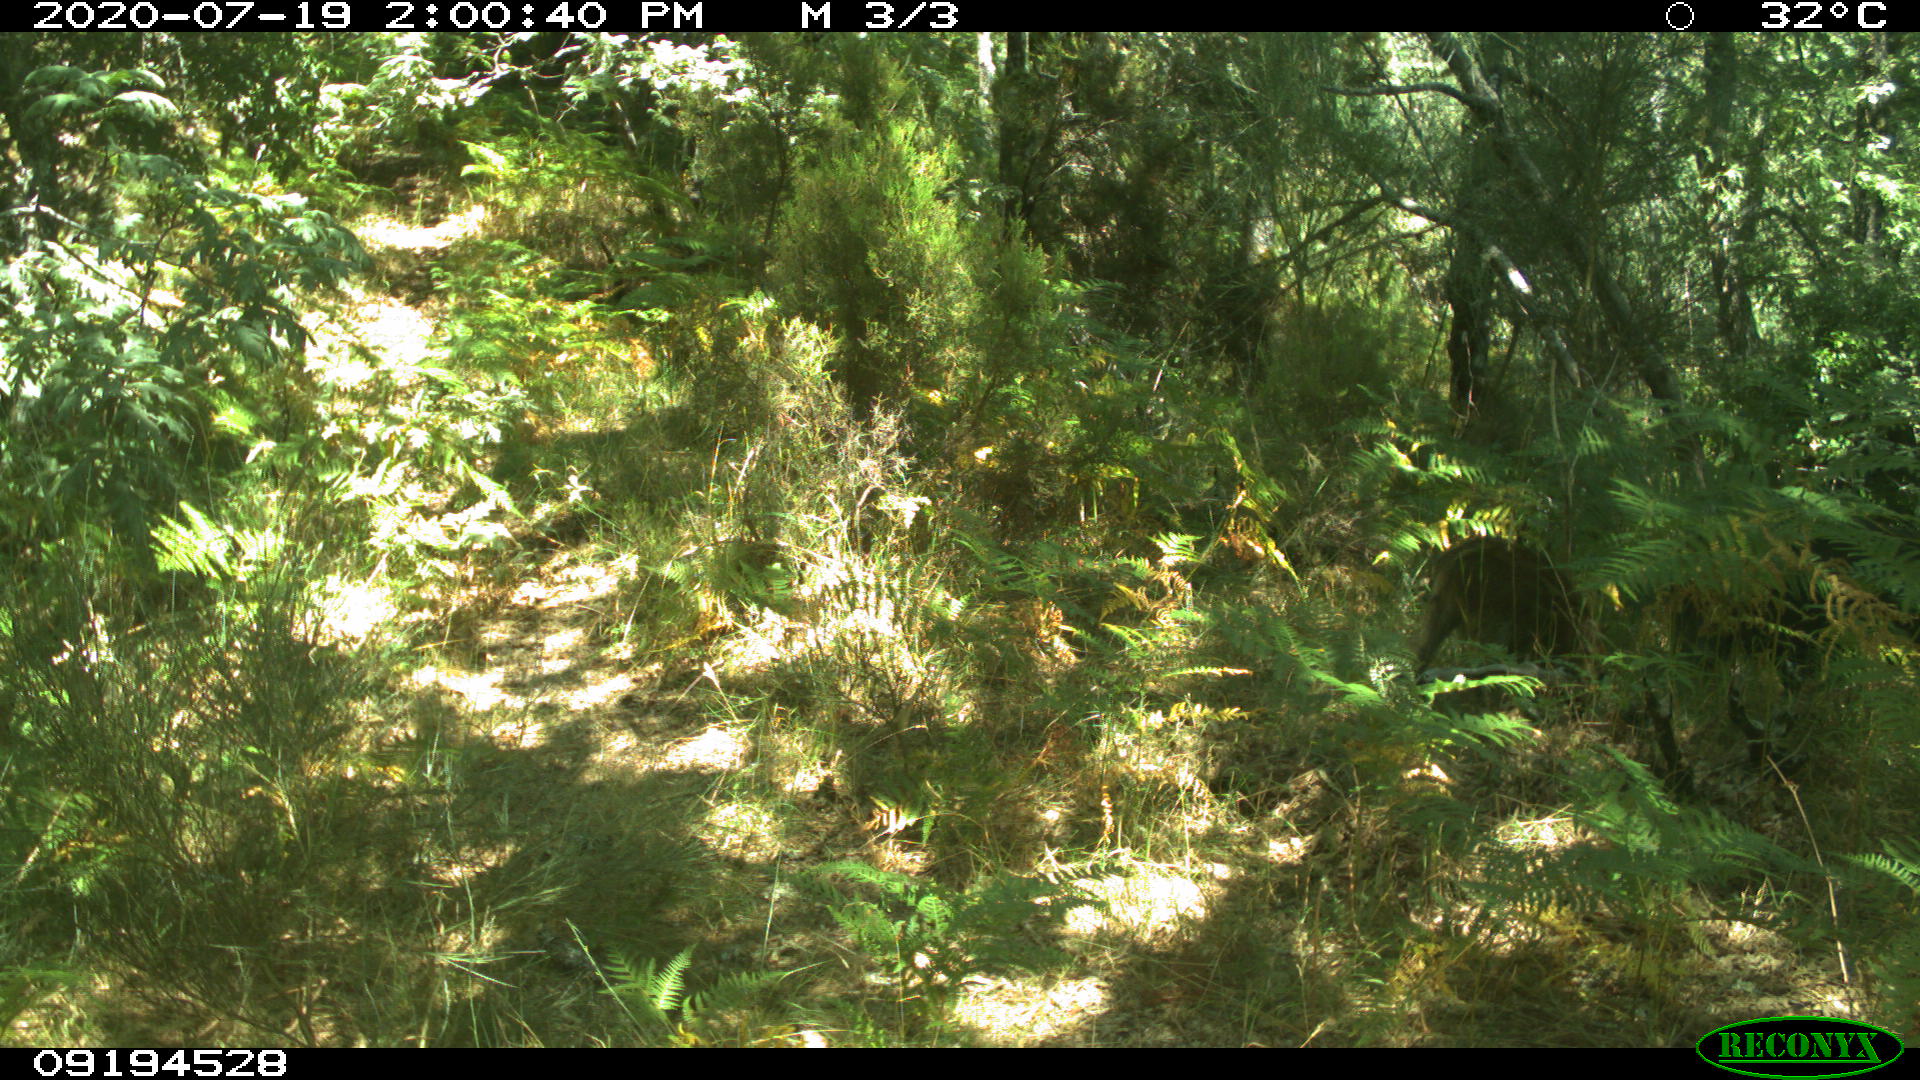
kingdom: Animalia
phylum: Chordata
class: Mammalia
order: Artiodactyla
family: Suidae
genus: Sus
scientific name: Sus scrofa
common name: Wild boar
